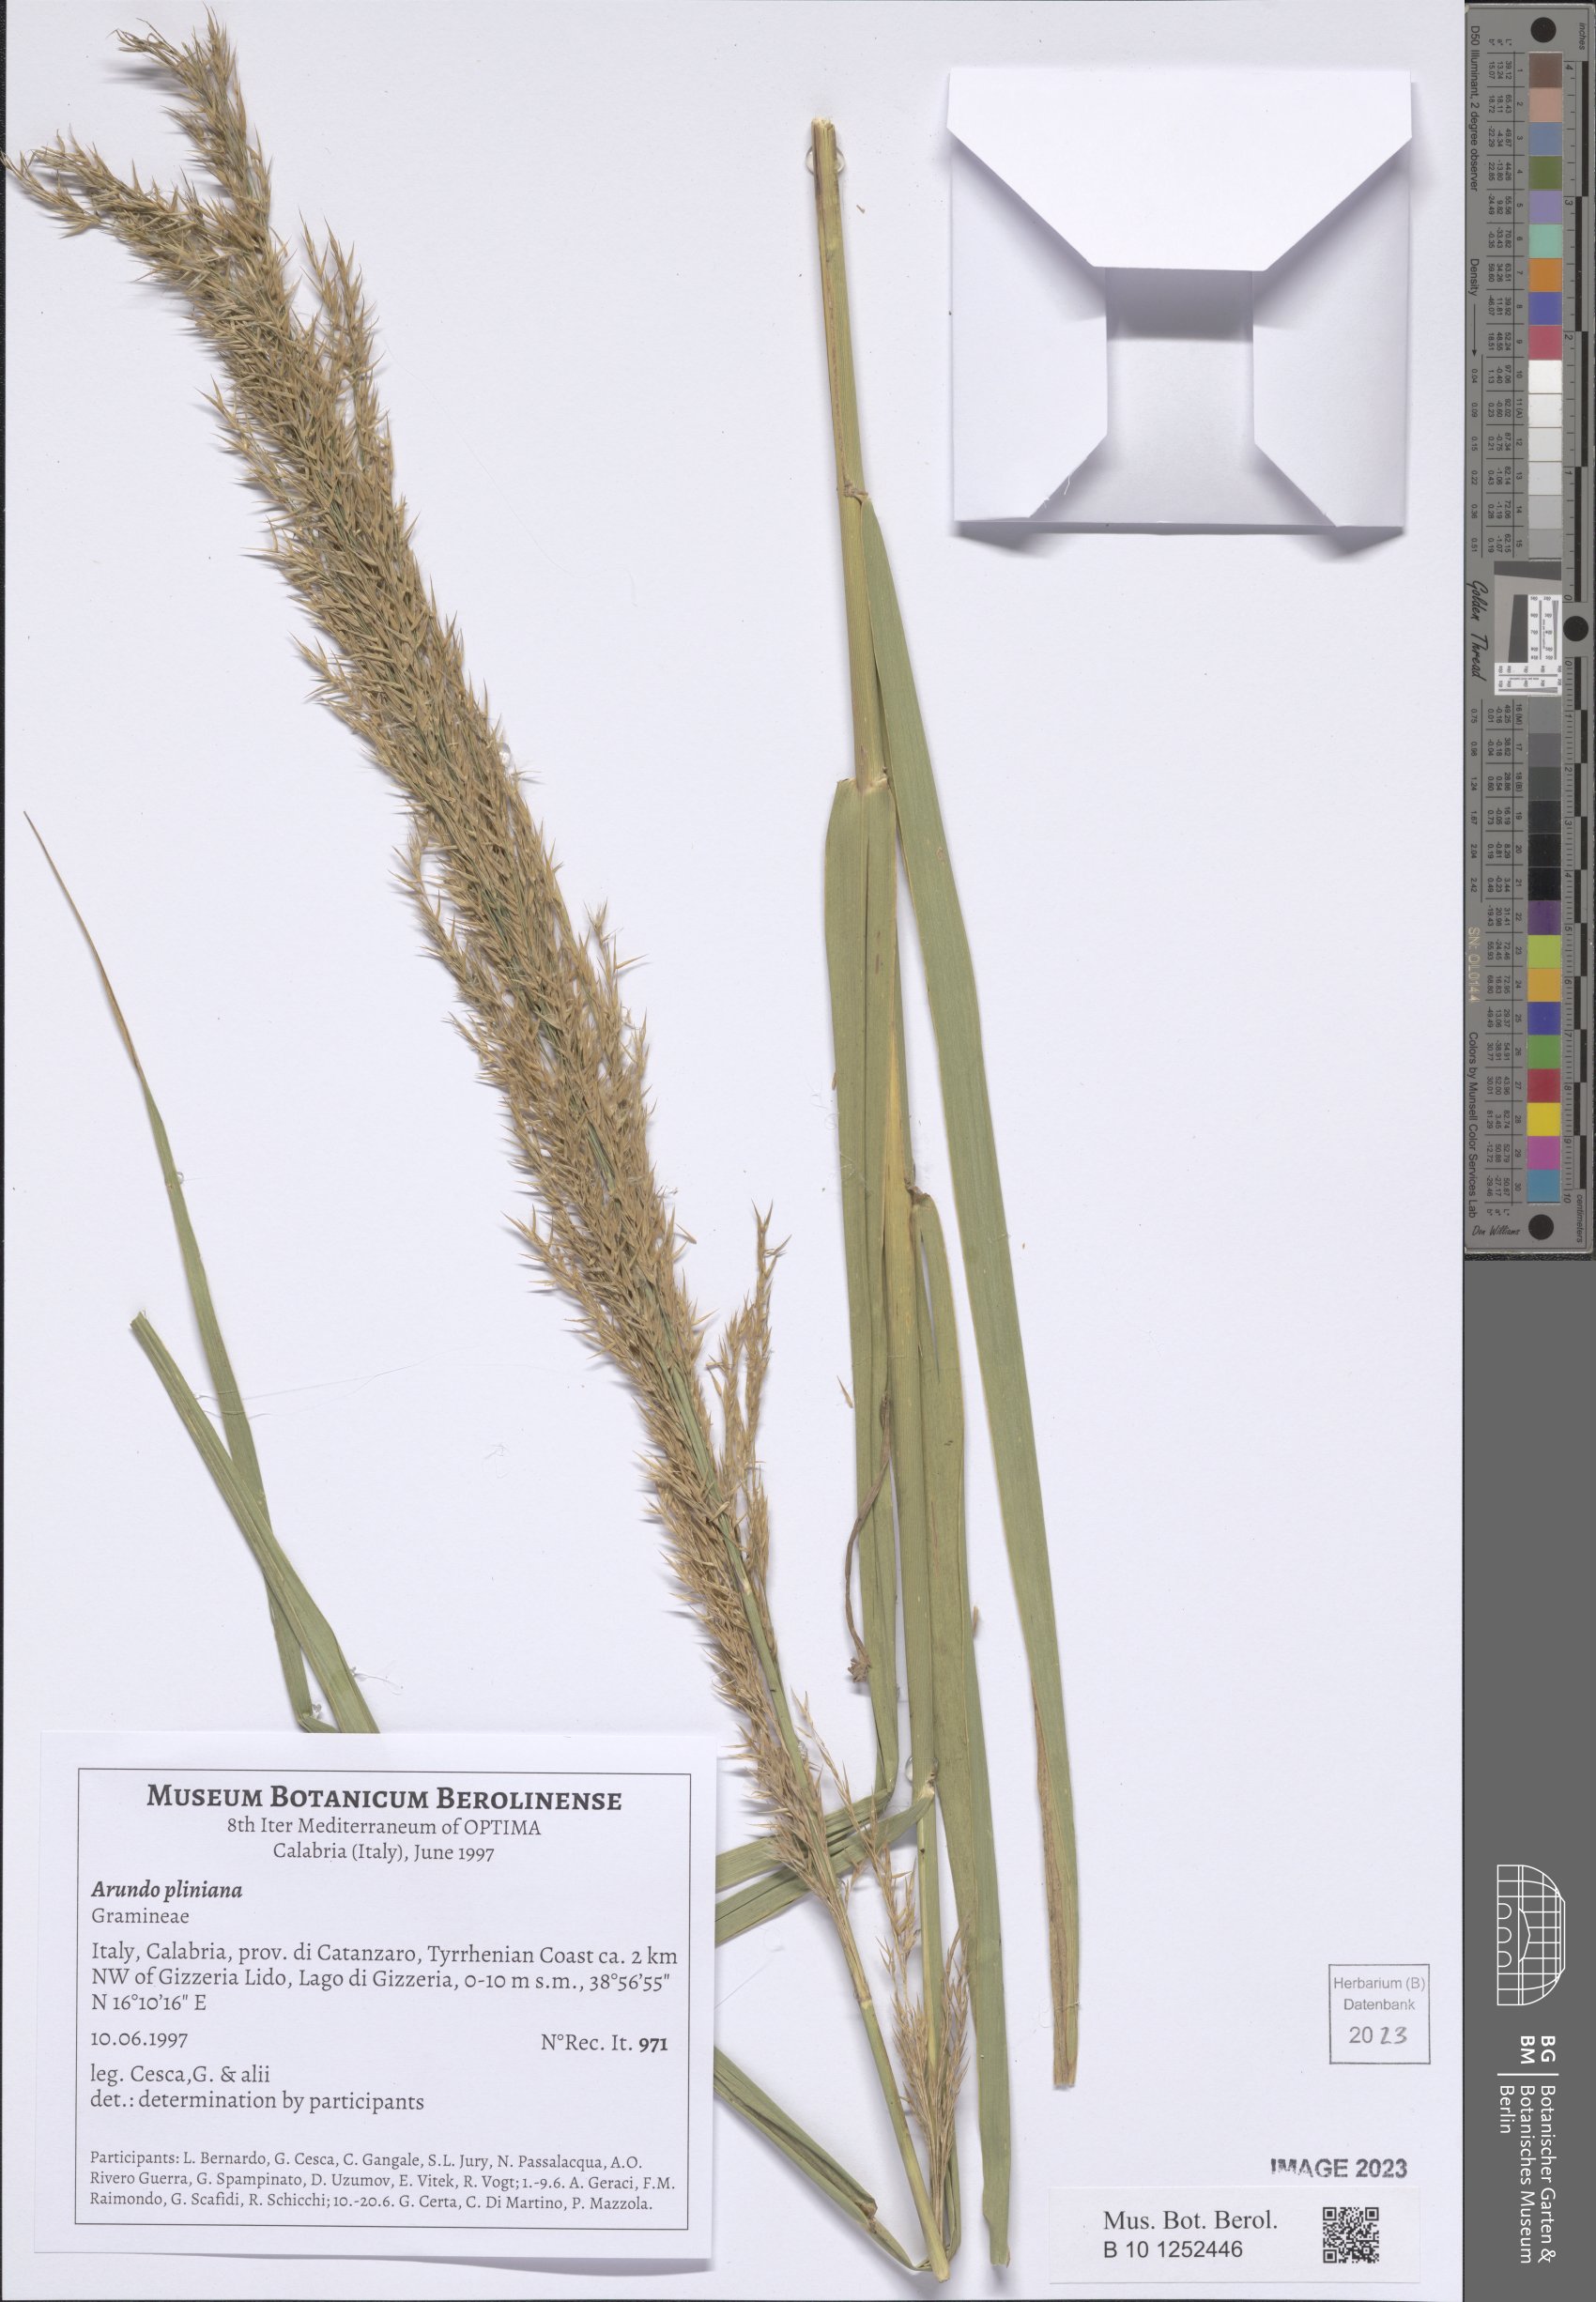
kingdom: Plantae
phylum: Tracheophyta
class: Liliopsida
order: Poales
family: Poaceae
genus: Arundo
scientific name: Arundo plinii
